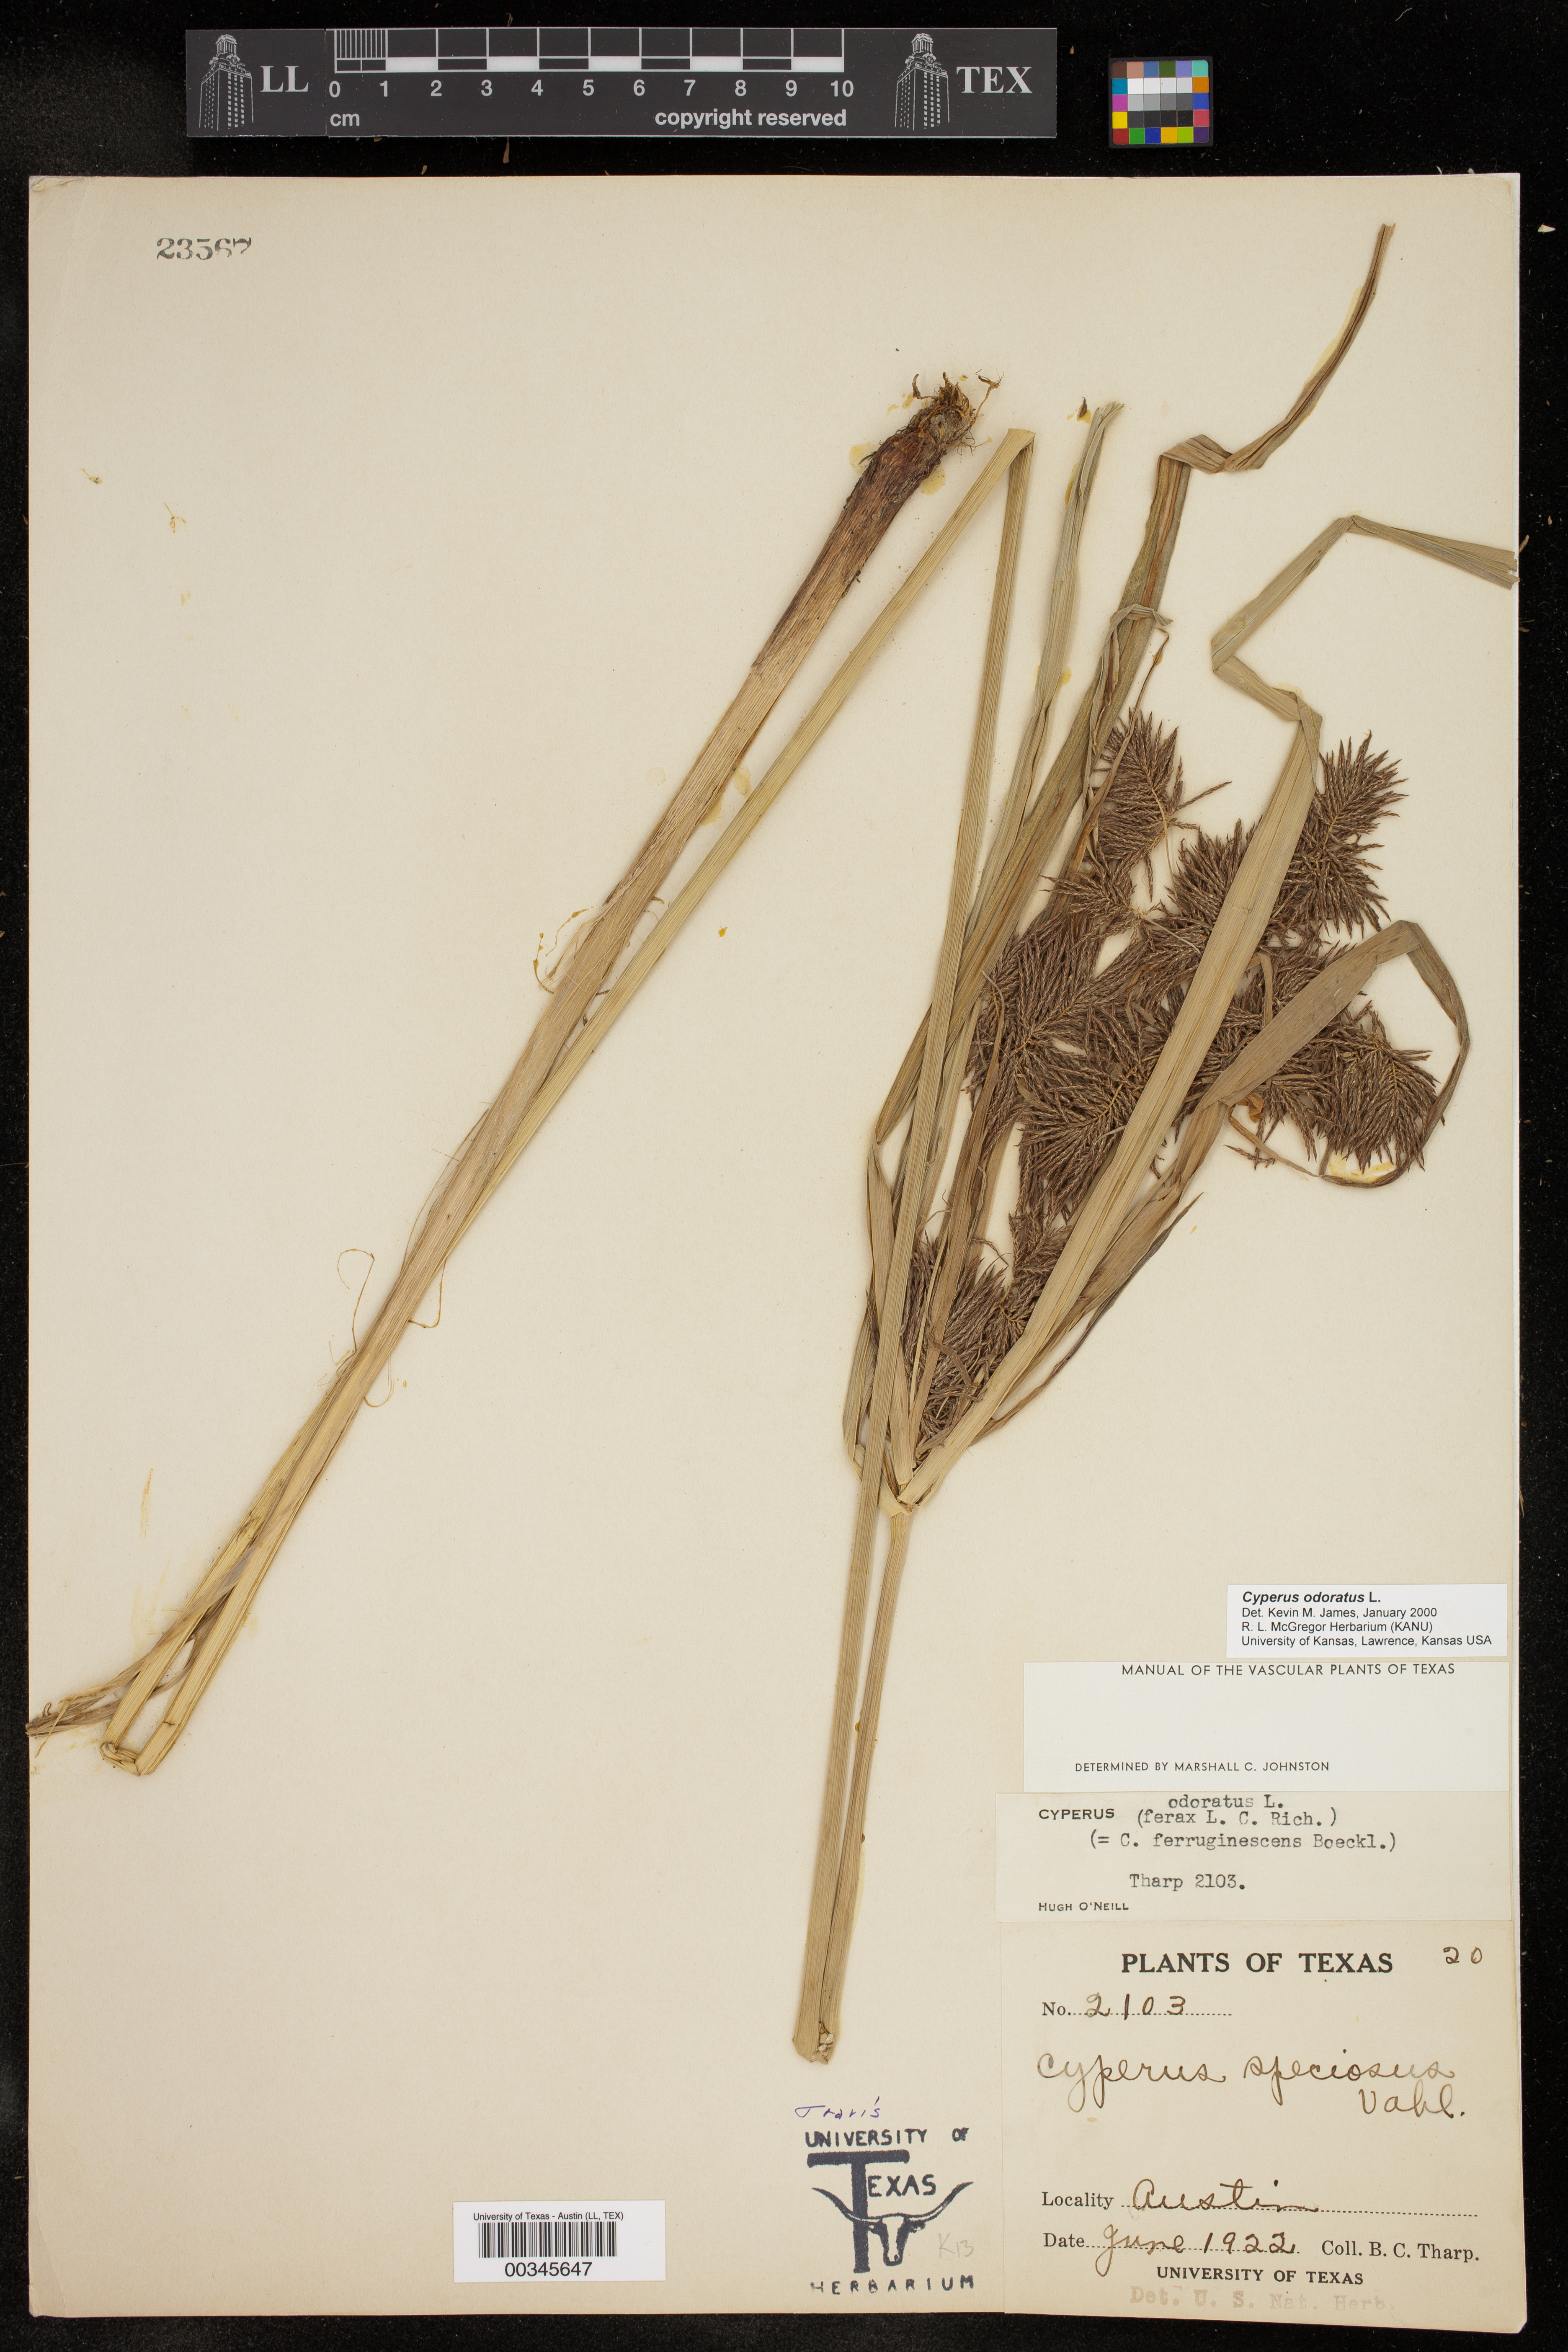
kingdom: Plantae
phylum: Tracheophyta
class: Liliopsida
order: Poales
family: Cyperaceae
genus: Cyperus
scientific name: Cyperus odoratus
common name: Fragrant flatsedge
